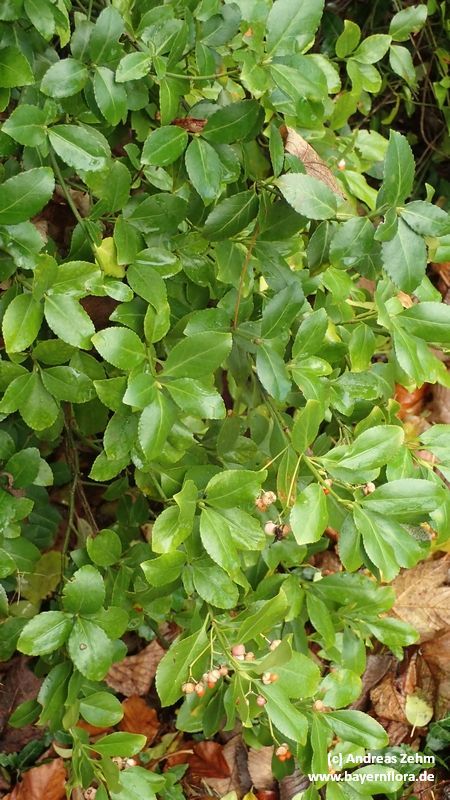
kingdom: Plantae
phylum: Tracheophyta
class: Magnoliopsida
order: Celastrales
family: Celastraceae
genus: Euonymus
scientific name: Euonymus fortunei
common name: Climbing euonymus
